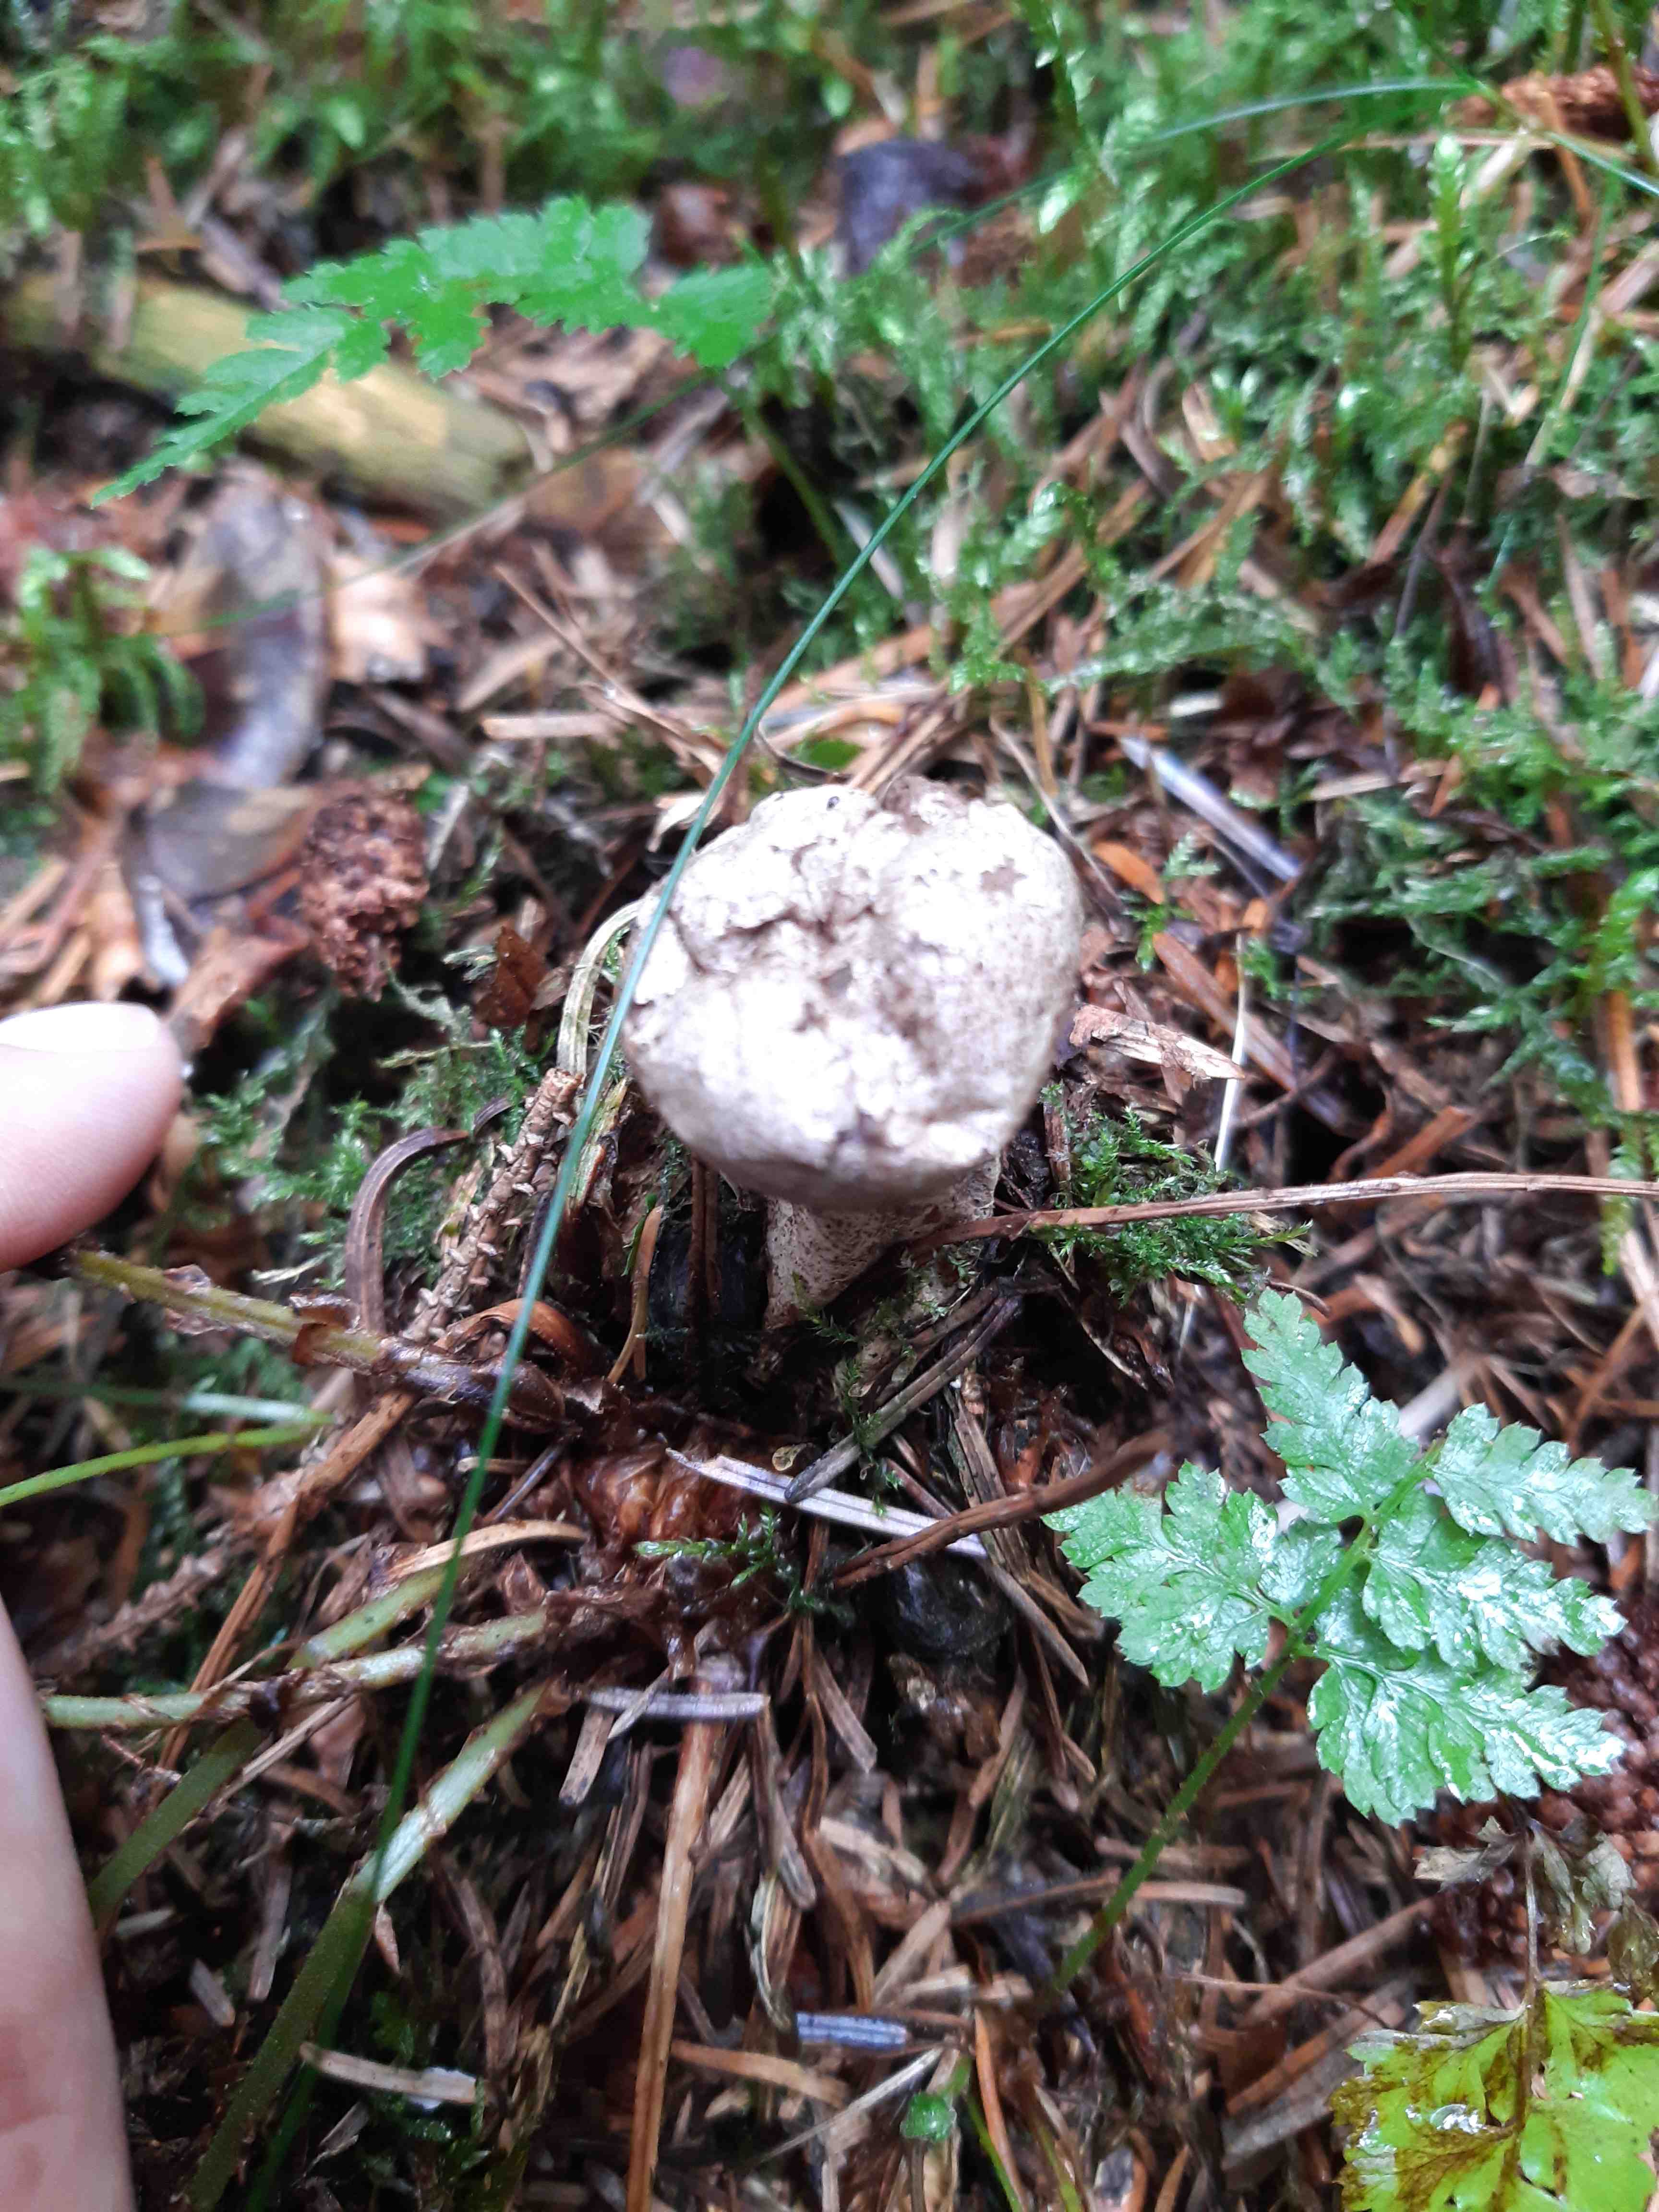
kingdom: Fungi
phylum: Basidiomycota
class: Agaricomycetes
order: Agaricales
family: Agaricaceae
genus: Lycoperdon
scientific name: Lycoperdon
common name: støvbold
